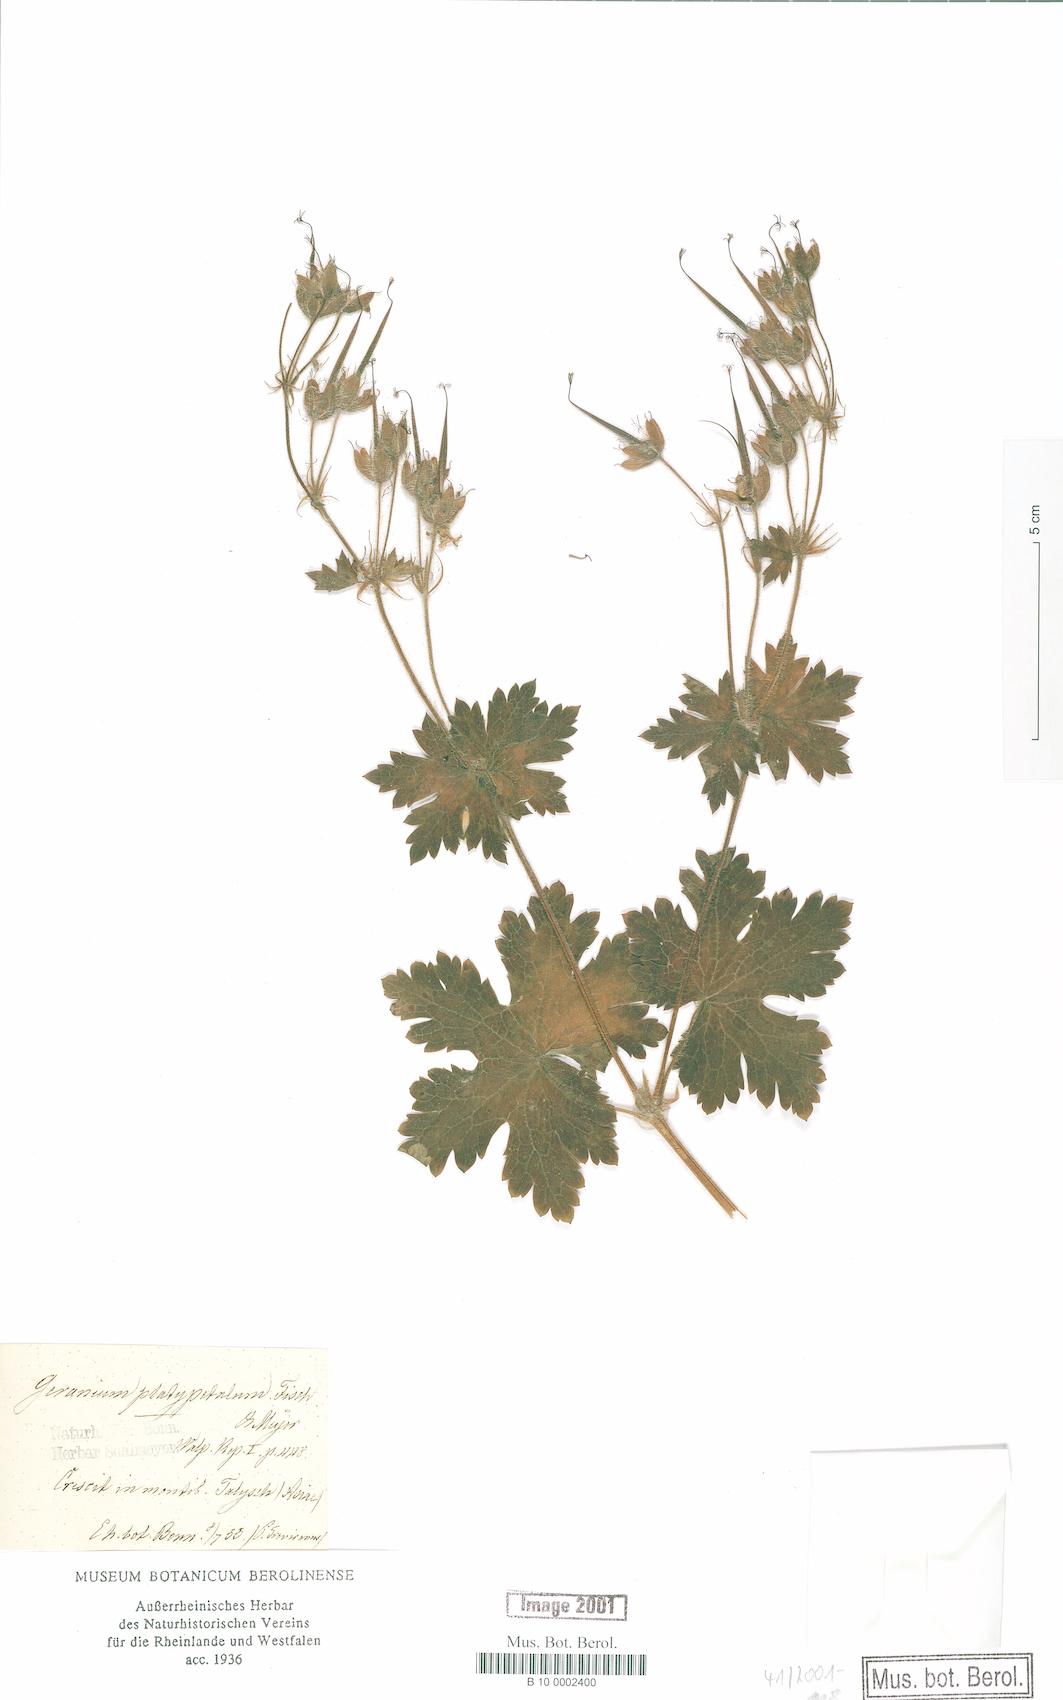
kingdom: Plantae
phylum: Tracheophyta
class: Magnoliopsida
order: Geraniales
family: Geraniaceae
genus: Geranium
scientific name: Geranium platypetalum
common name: Glandular crane's-bill
